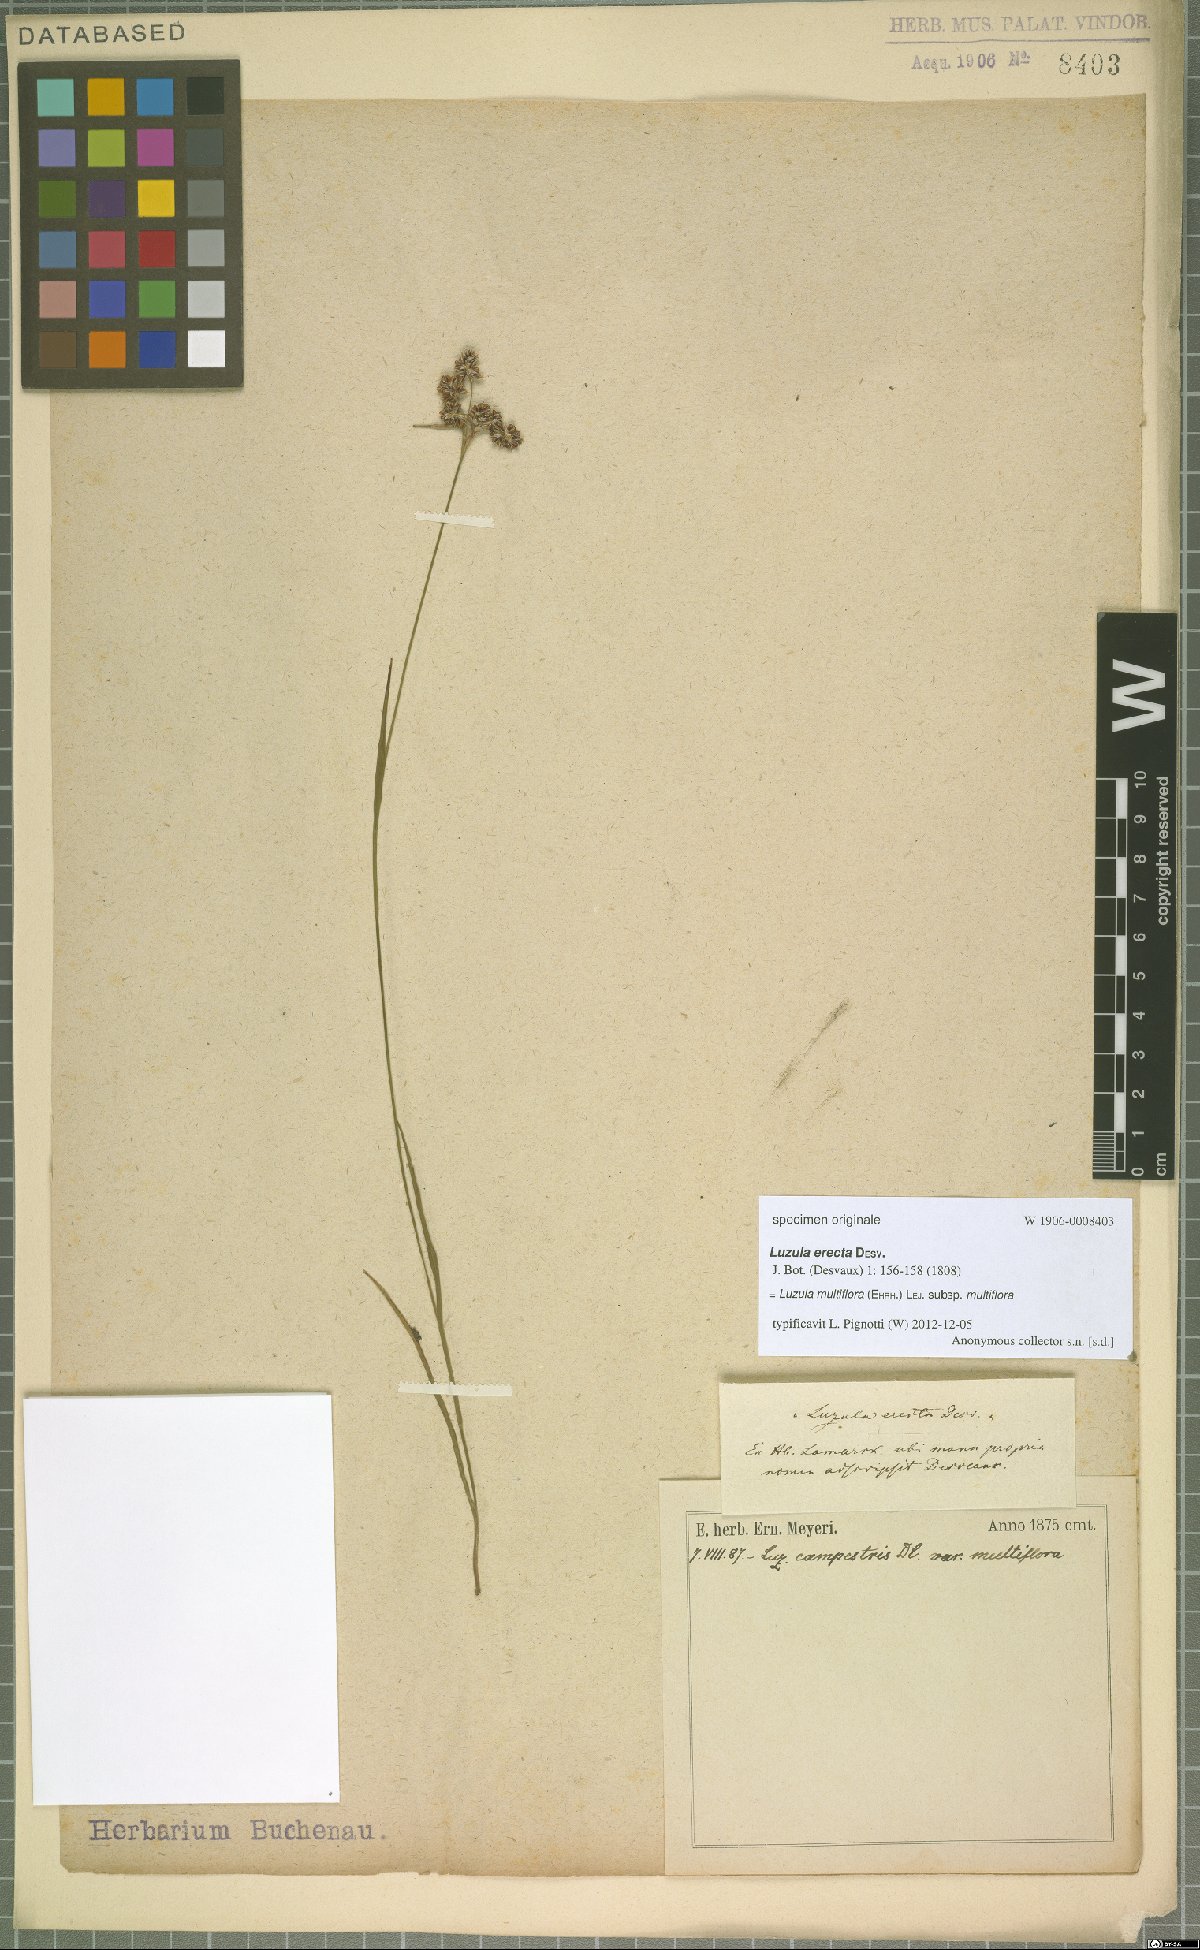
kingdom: Plantae
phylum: Tracheophyta
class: Liliopsida
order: Poales
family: Juncaceae
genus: Luzula
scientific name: Luzula multiflora
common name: Heath wood-rush
